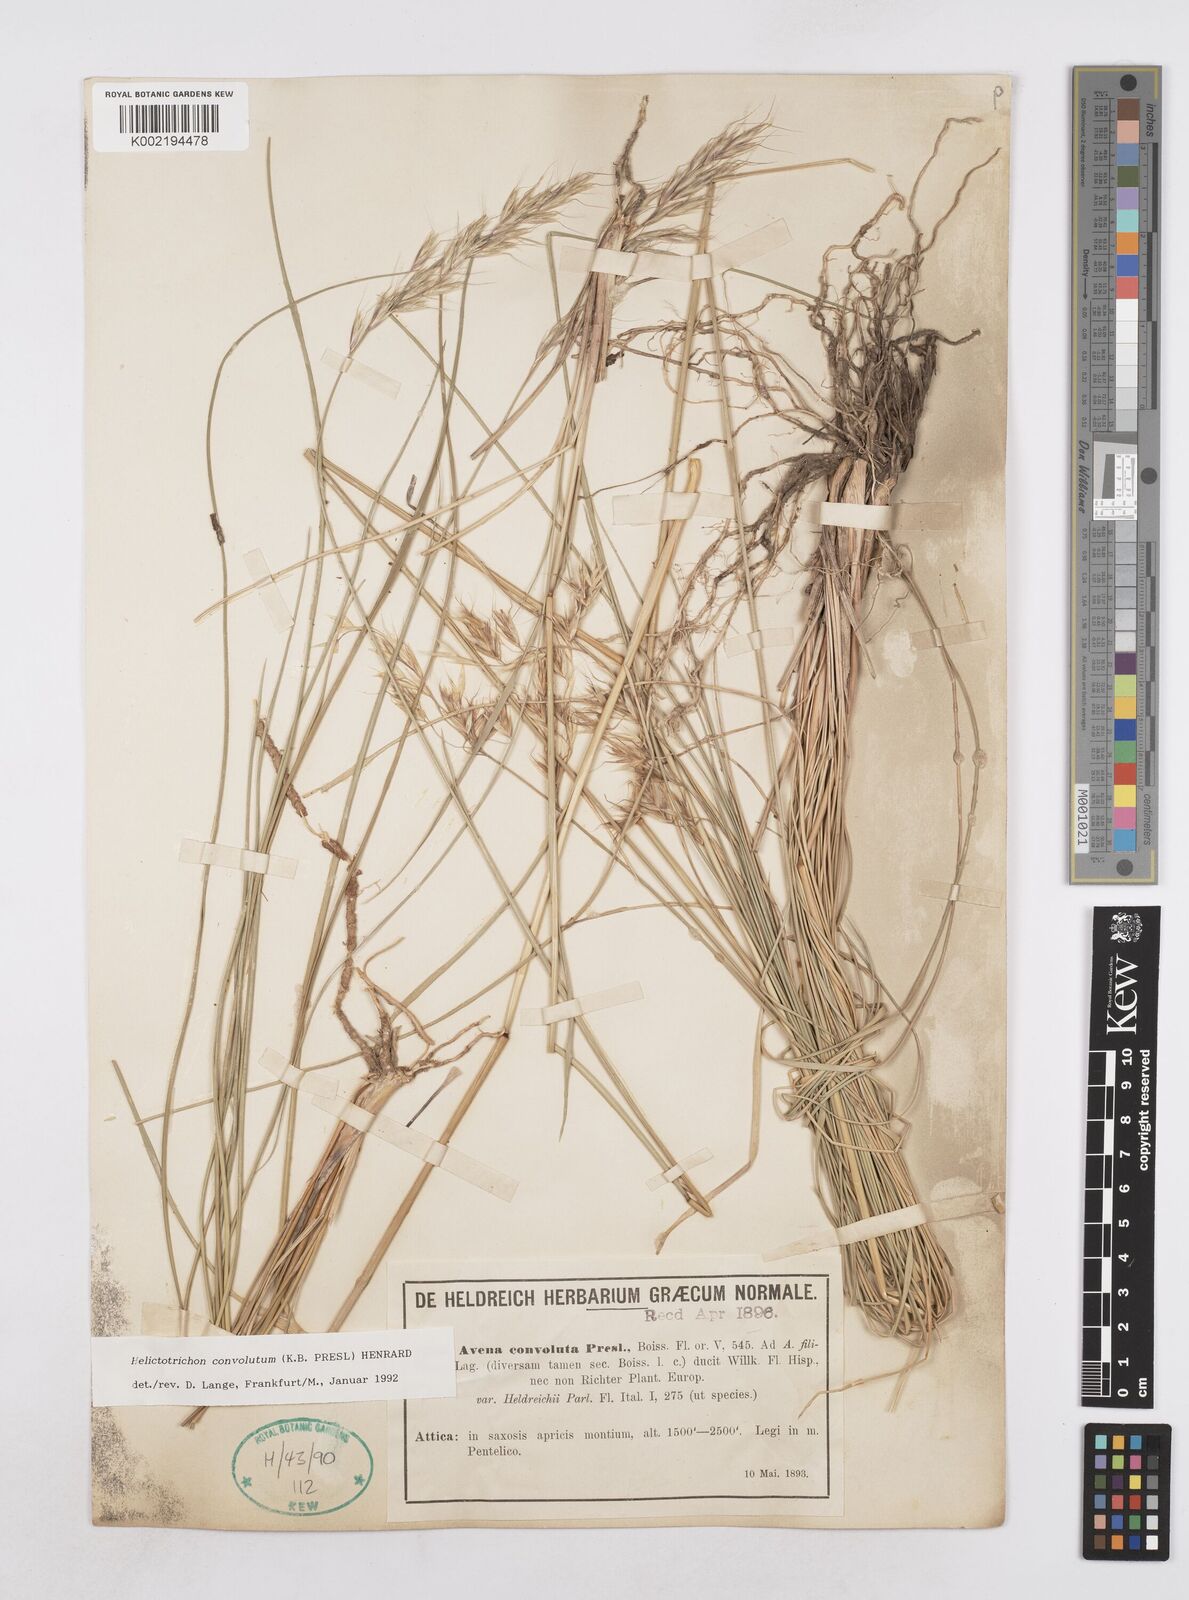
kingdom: Plantae
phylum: Tracheophyta
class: Liliopsida
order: Poales
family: Poaceae
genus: Helictotrichon
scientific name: Helictotrichon convolutum
